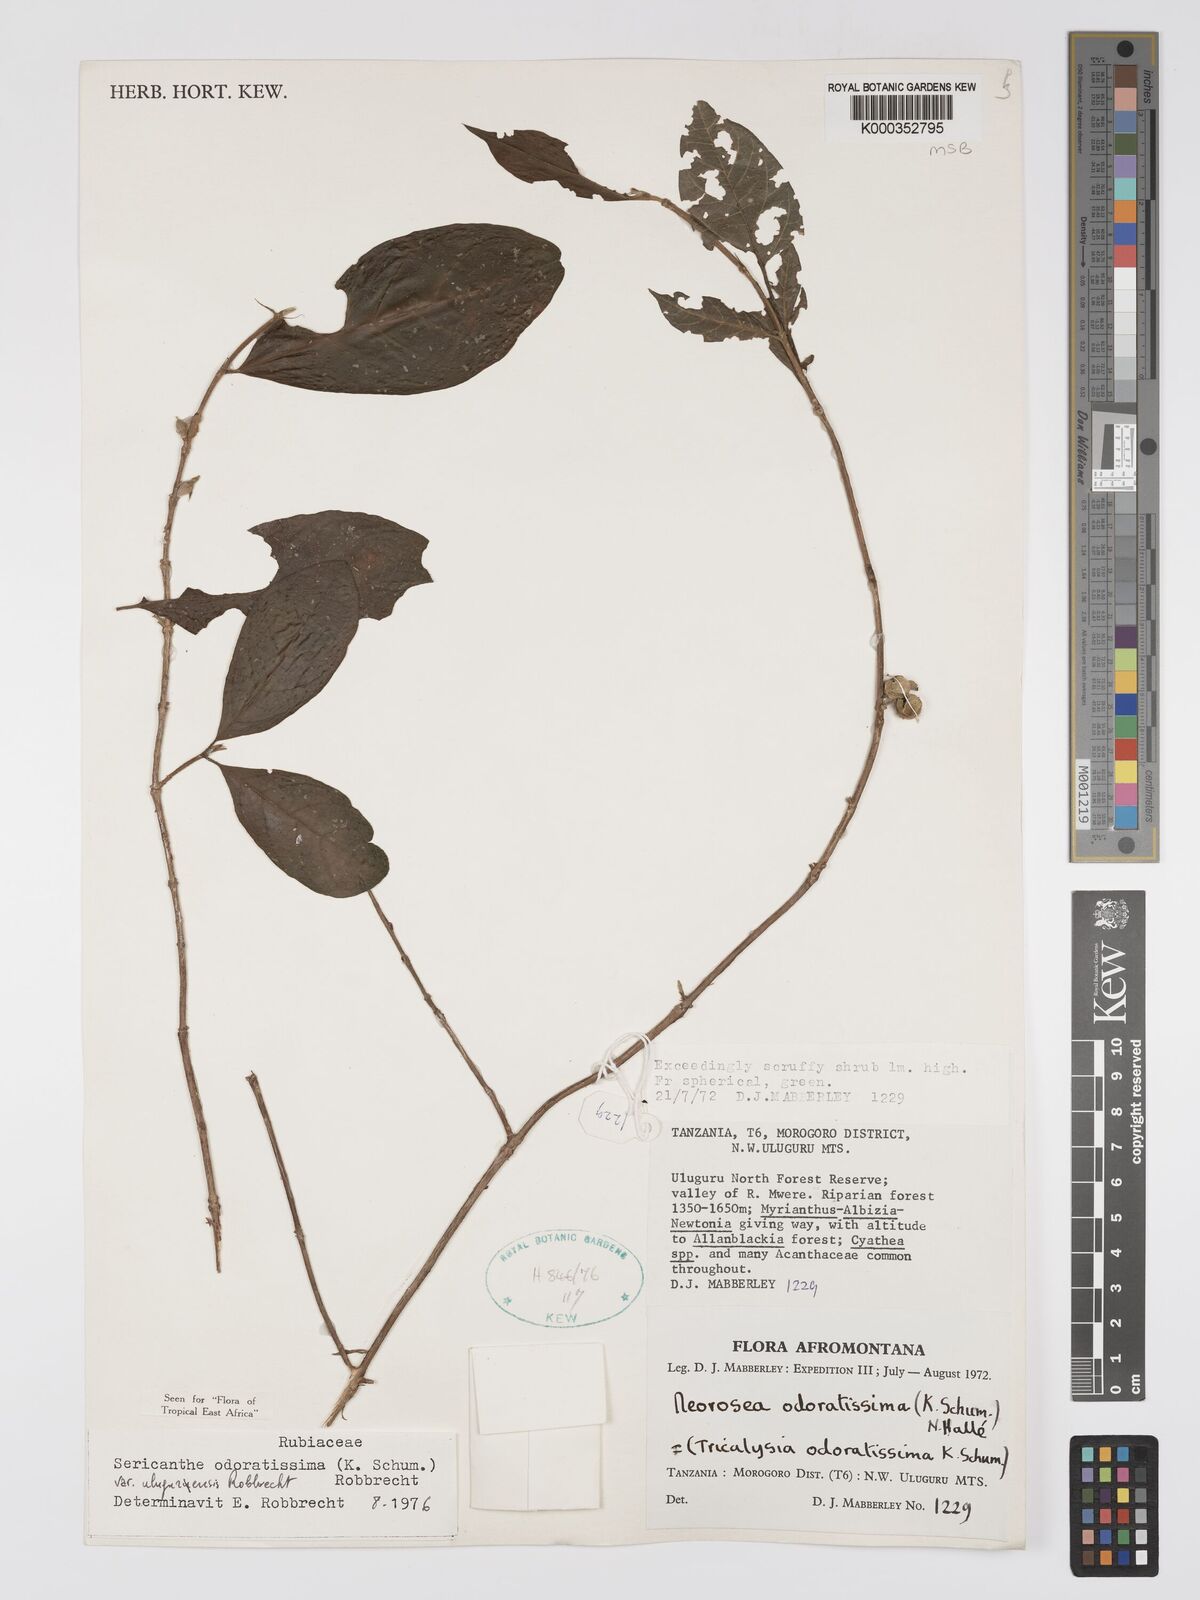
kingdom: Plantae
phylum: Tracheophyta
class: Magnoliopsida
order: Gentianales
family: Rubiaceae
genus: Sericanthe
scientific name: Sericanthe odoratissima
